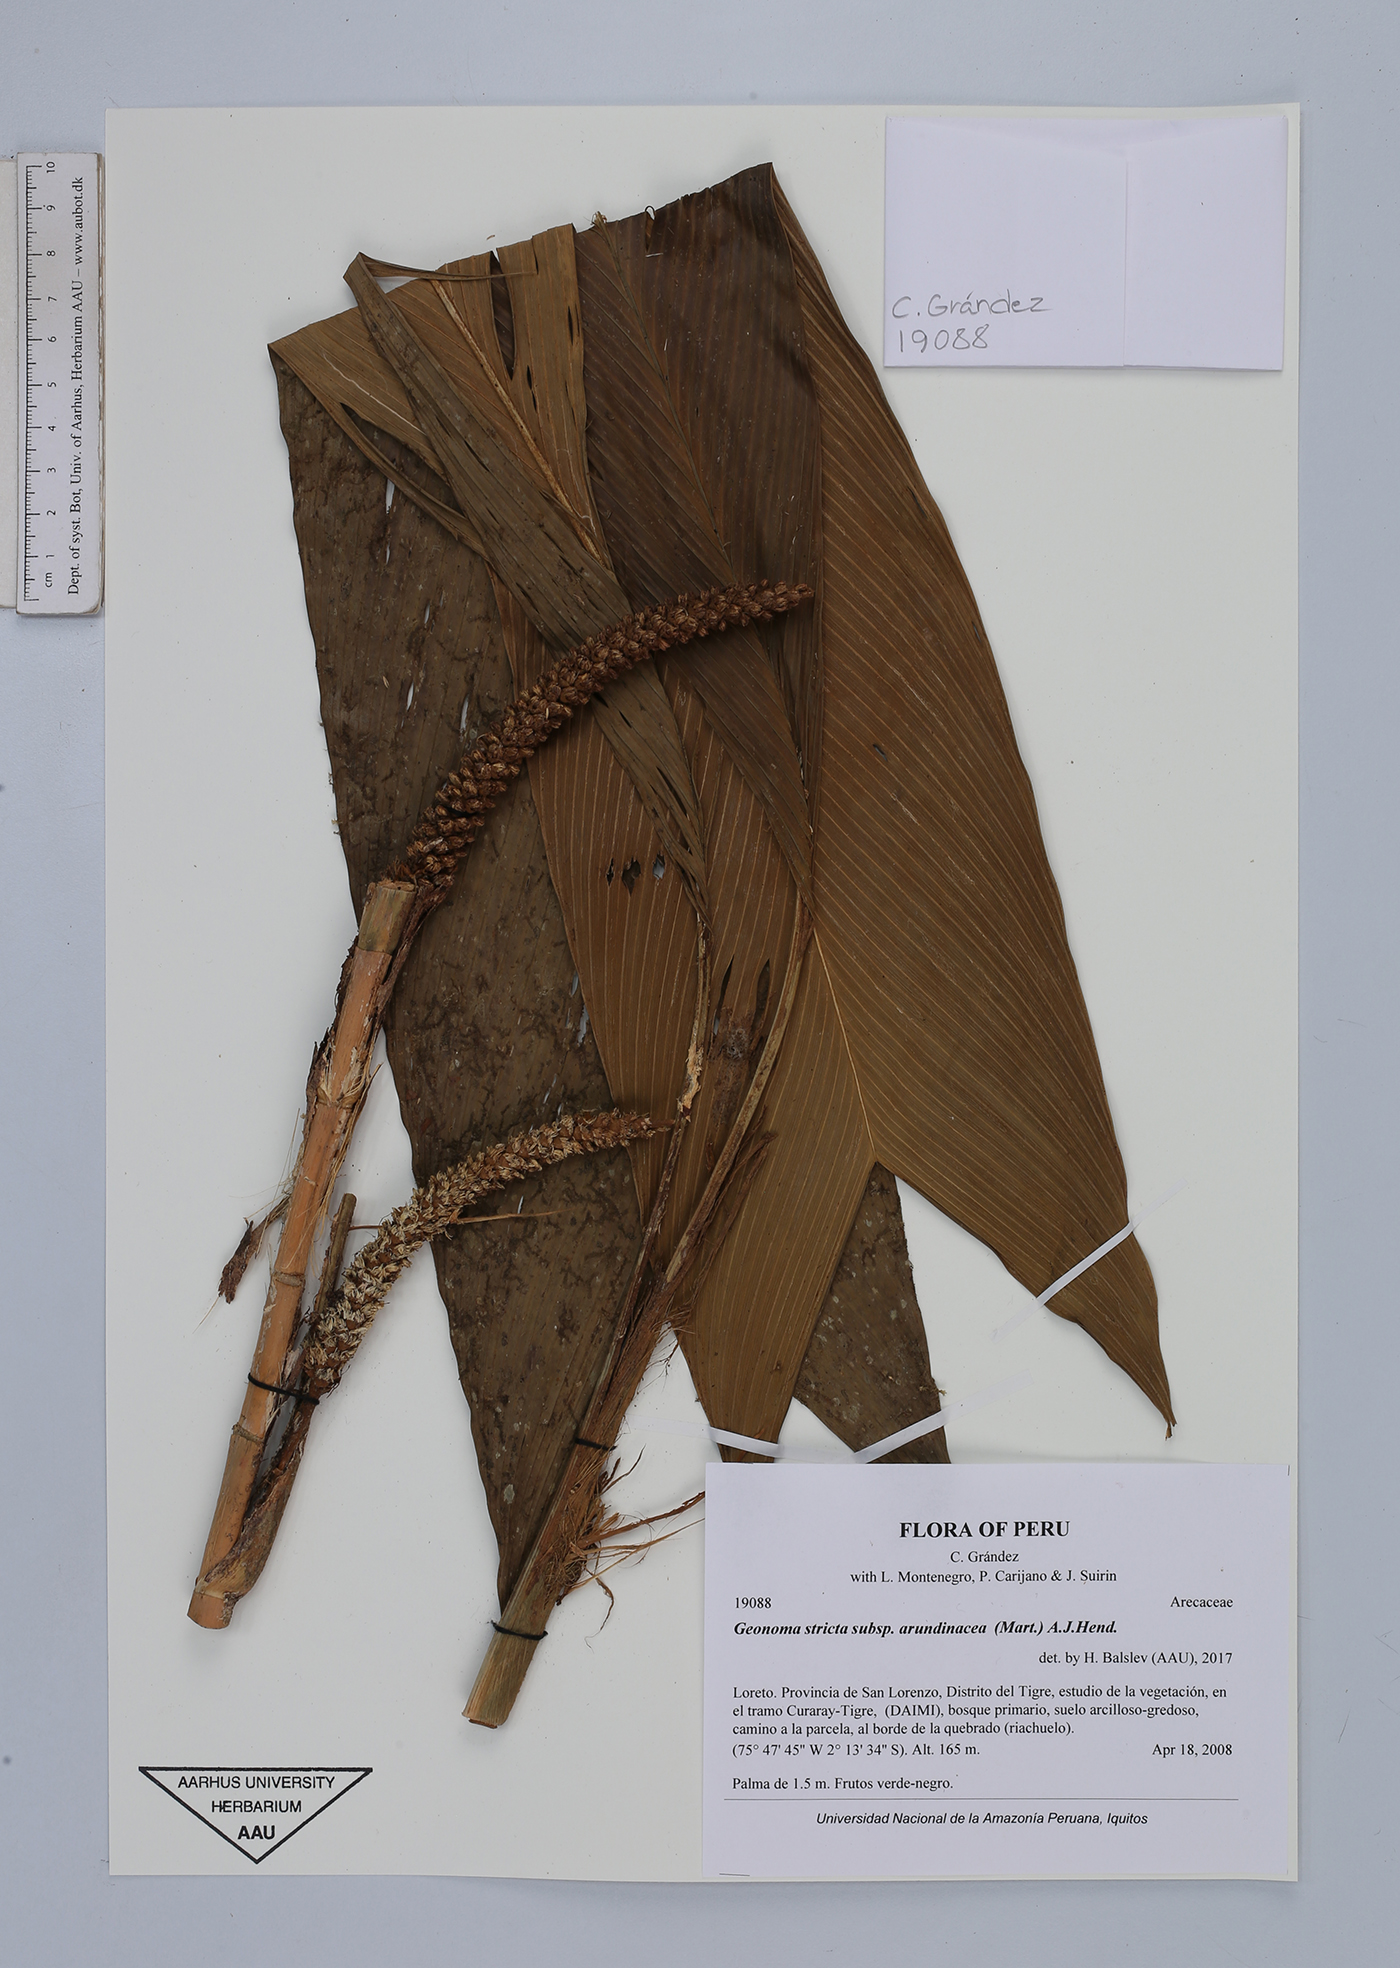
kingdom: Plantae
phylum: Tracheophyta
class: Liliopsida
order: Arecales
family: Arecaceae
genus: Geonoma
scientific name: Geonoma stricta
